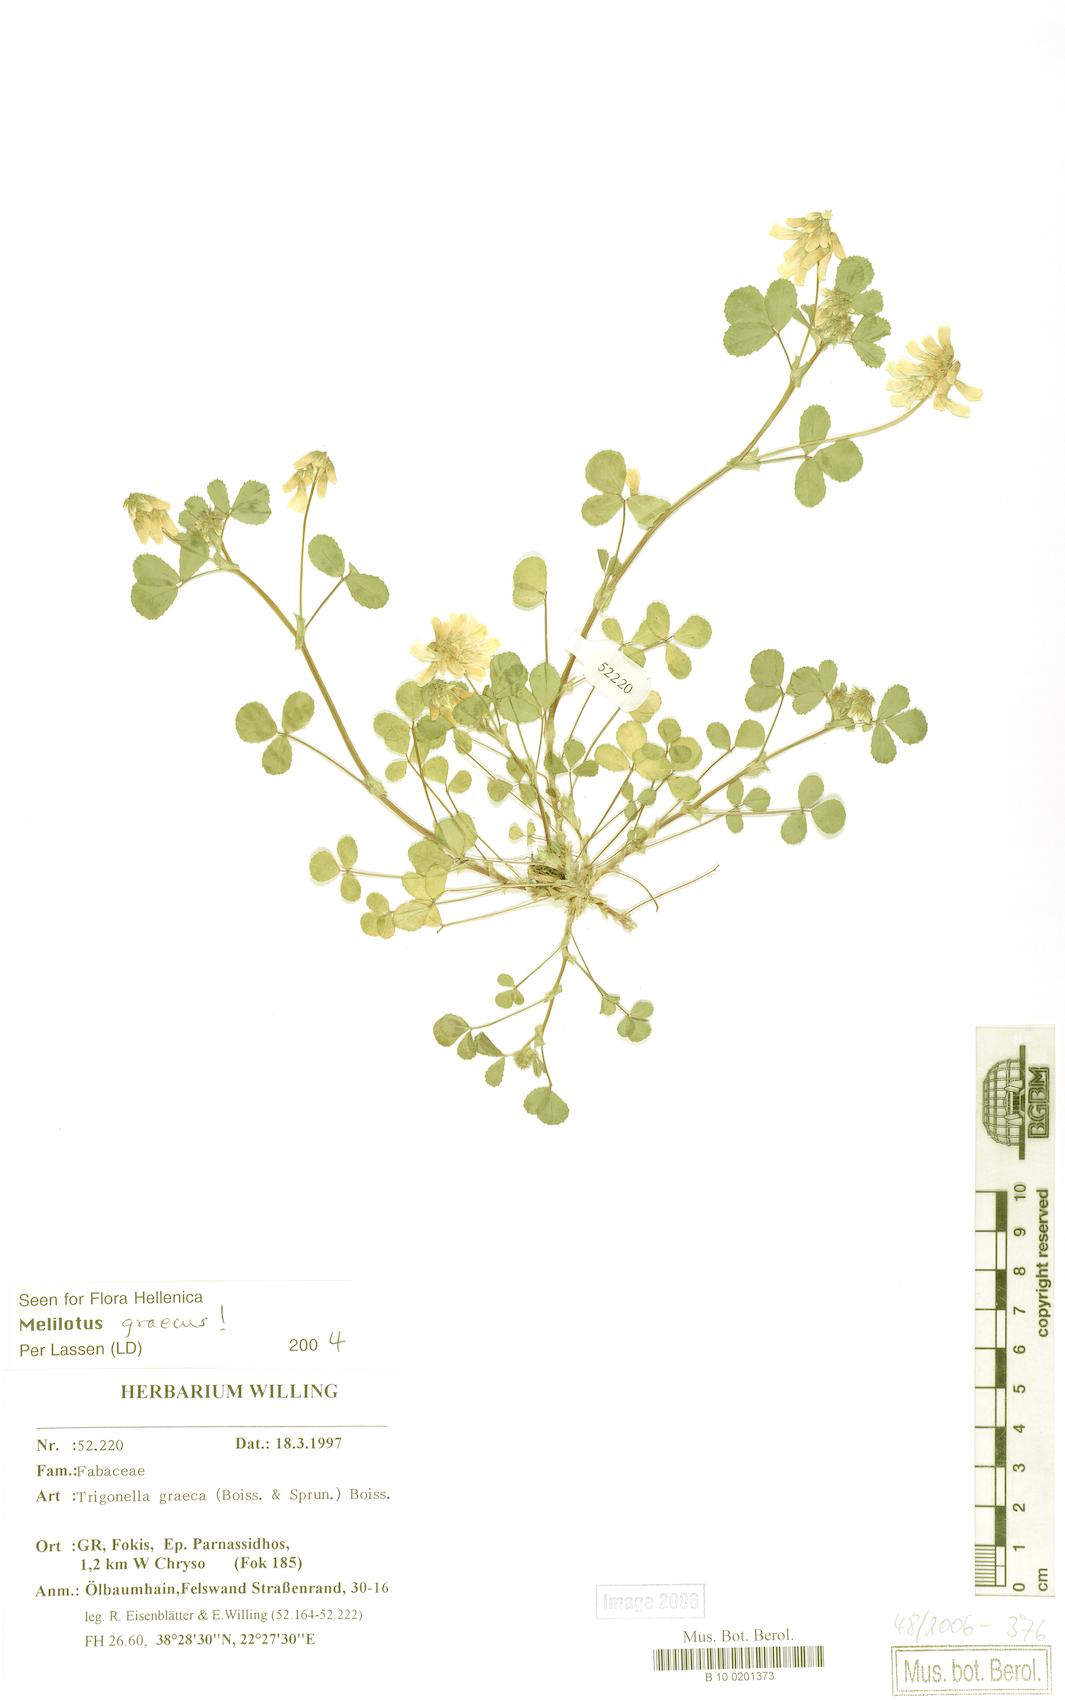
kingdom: Plantae
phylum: Tracheophyta
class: Magnoliopsida
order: Fabales
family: Fabaceae
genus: Trigonella
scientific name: Trigonella graeca
